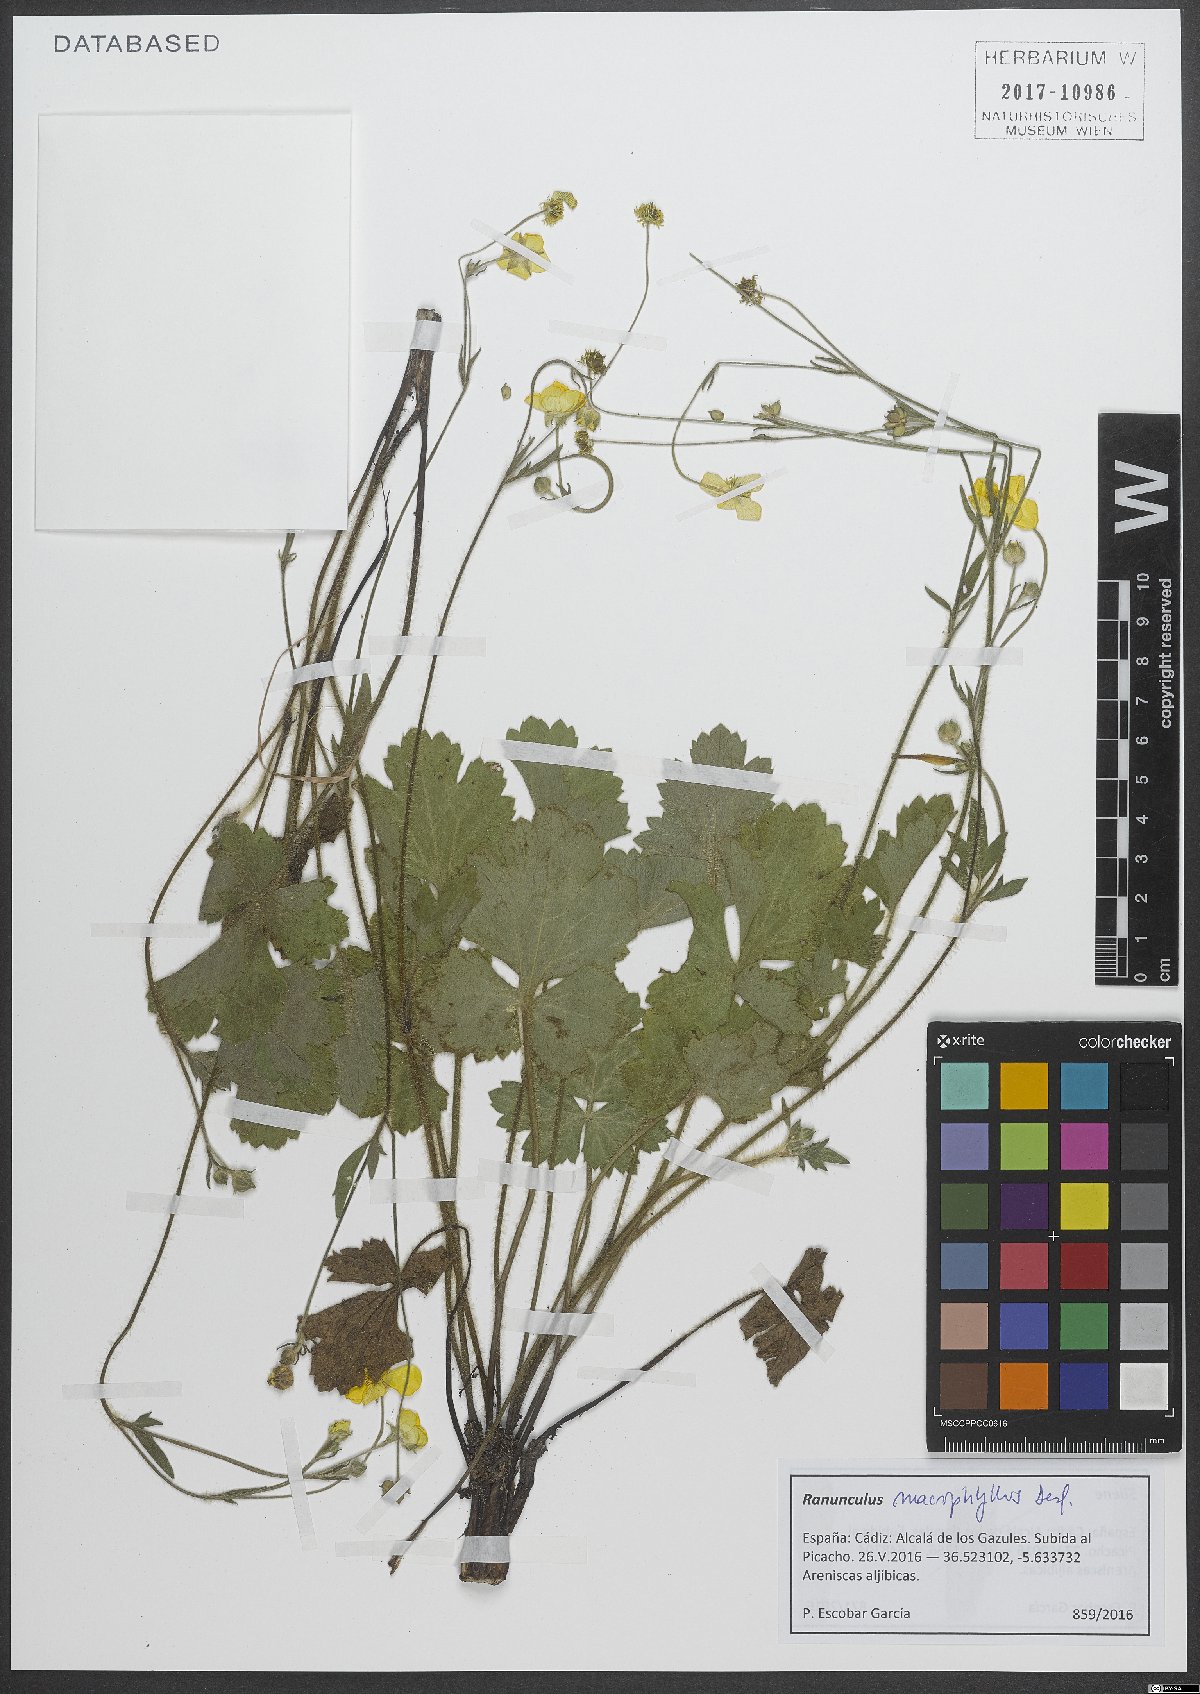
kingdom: Plantae
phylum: Tracheophyta
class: Magnoliopsida
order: Ranunculales
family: Ranunculaceae
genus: Ranunculus
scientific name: Ranunculus acris
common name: Meadow buttercup
